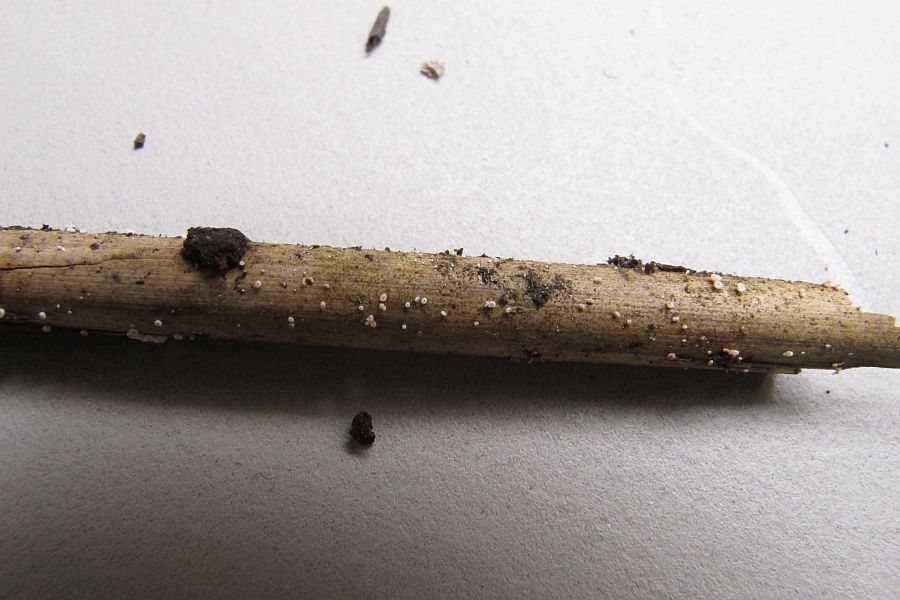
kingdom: Fungi
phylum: Ascomycota
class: Leotiomycetes
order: Helotiales
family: Lachnaceae
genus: Lachnum
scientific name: Lachnum controversum
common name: tagrør-frynseskive
